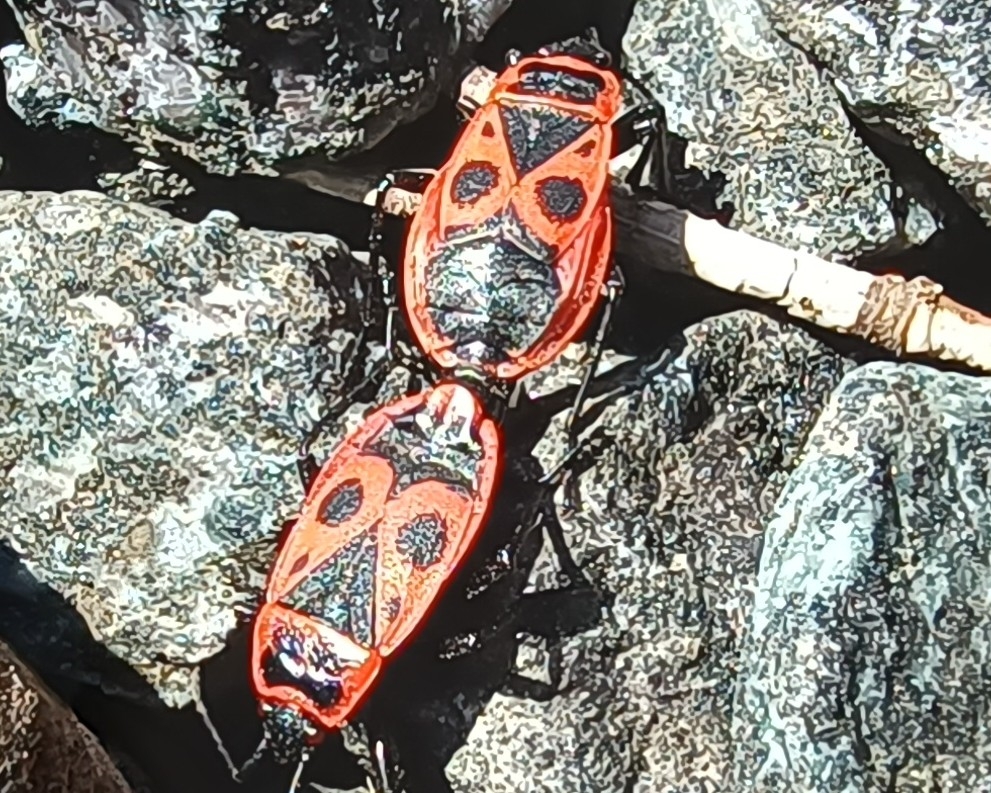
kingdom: Animalia
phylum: Arthropoda
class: Insecta
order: Hemiptera
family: Pyrrhocoridae
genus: Pyrrhocoris
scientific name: Pyrrhocoris apterus
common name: Ildtæge
